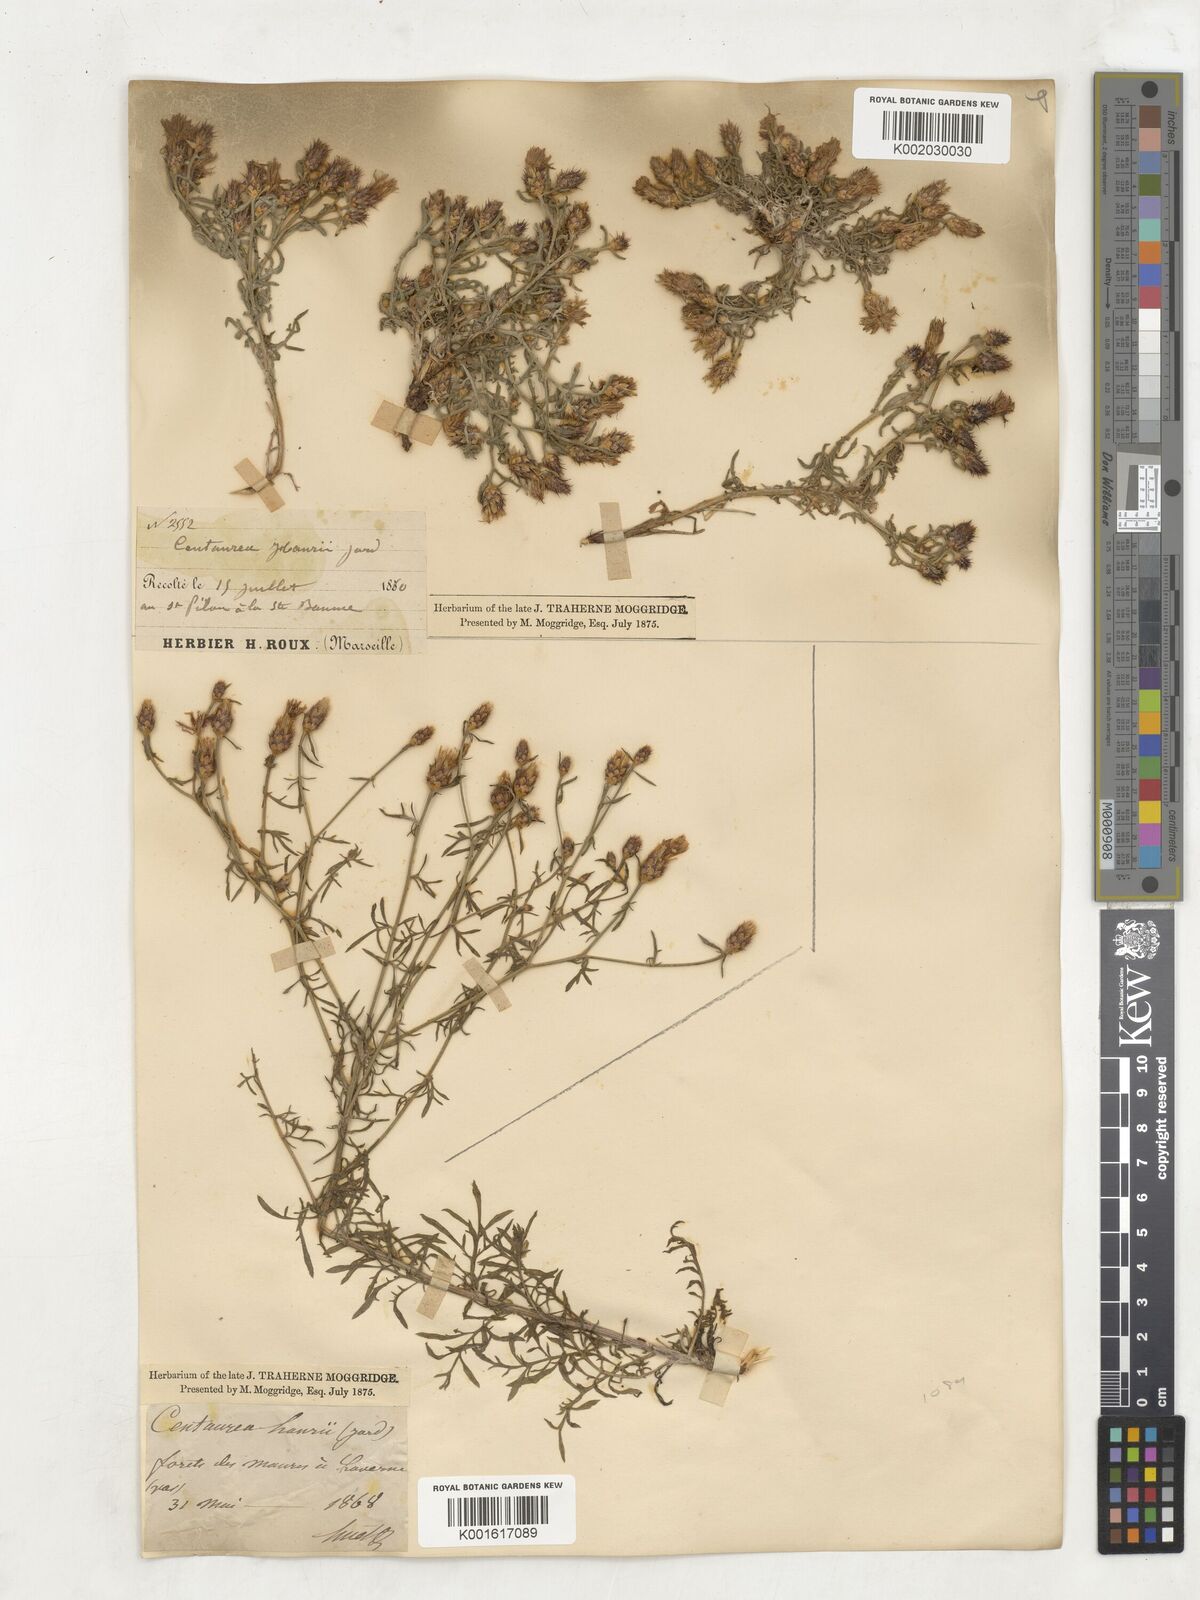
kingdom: Plantae
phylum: Tracheophyta
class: Magnoliopsida
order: Asterales
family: Asteraceae
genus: Centaurea
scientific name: Centaurea hanryi
